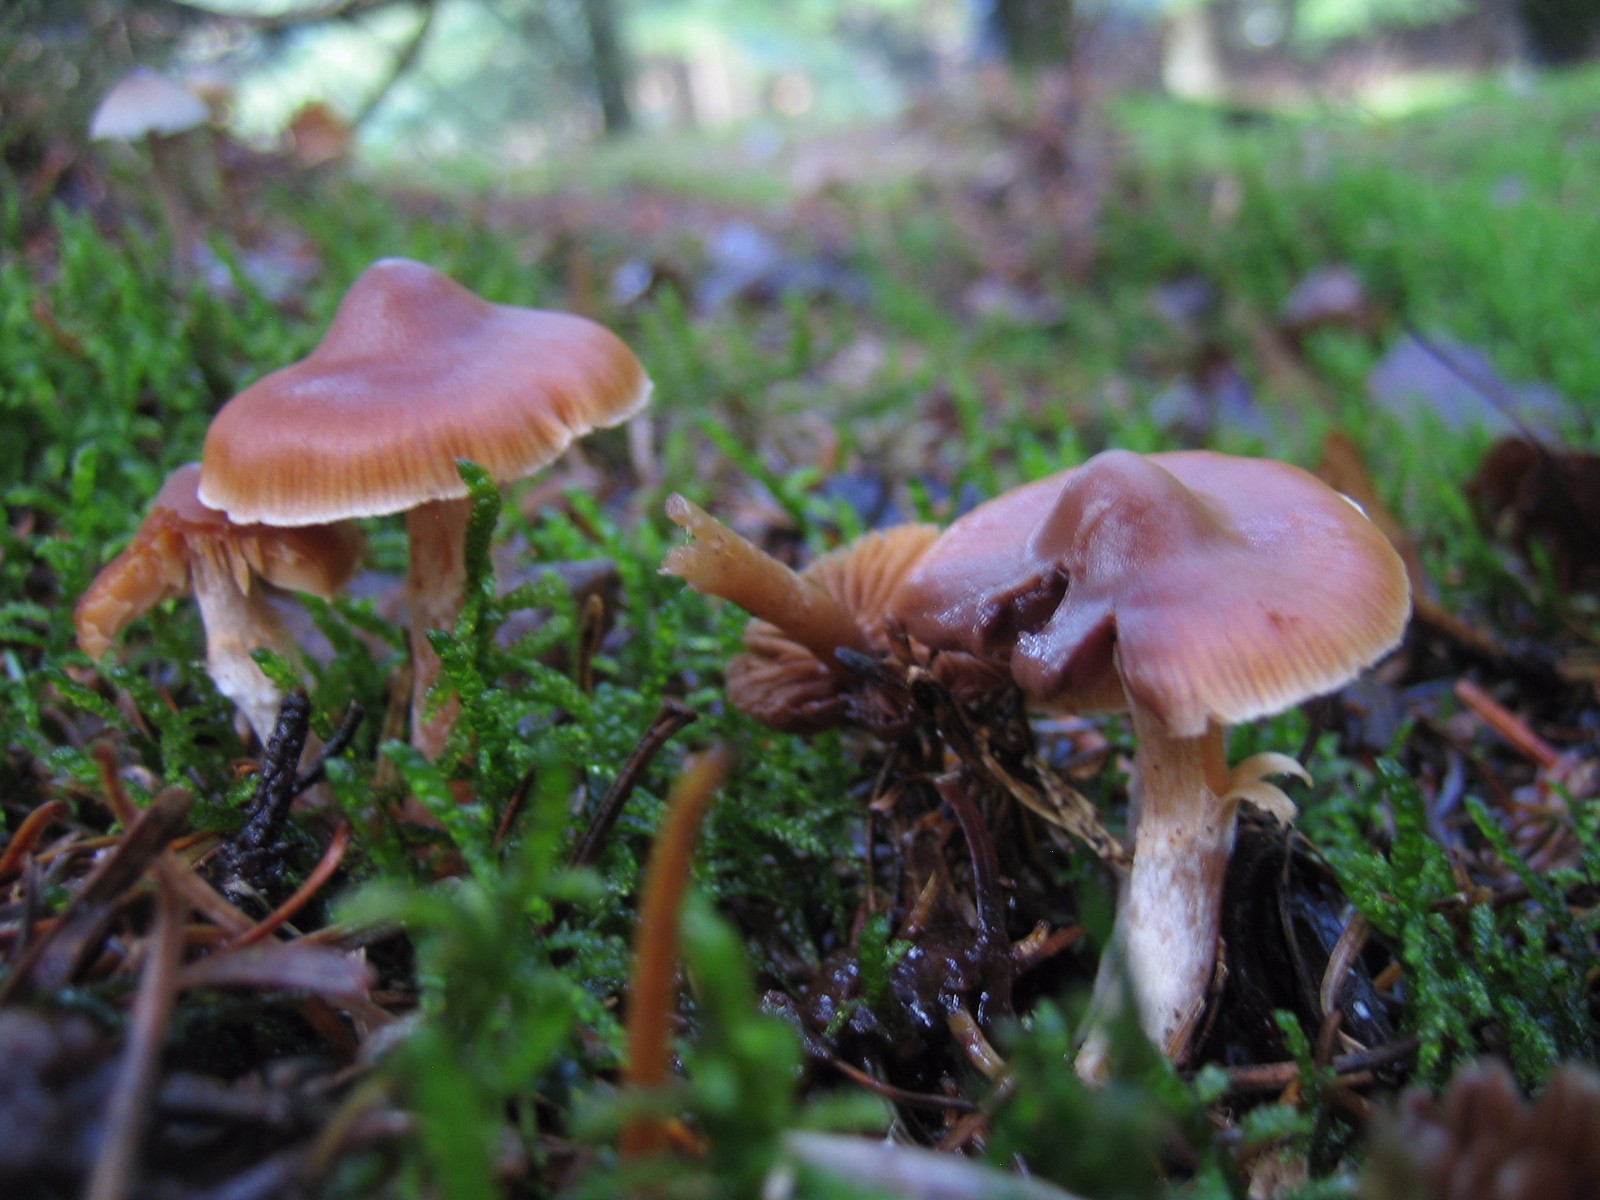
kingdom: Fungi
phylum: Basidiomycota
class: Agaricomycetes
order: Agaricales
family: Cortinariaceae
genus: Cortinarius
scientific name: Cortinarius
